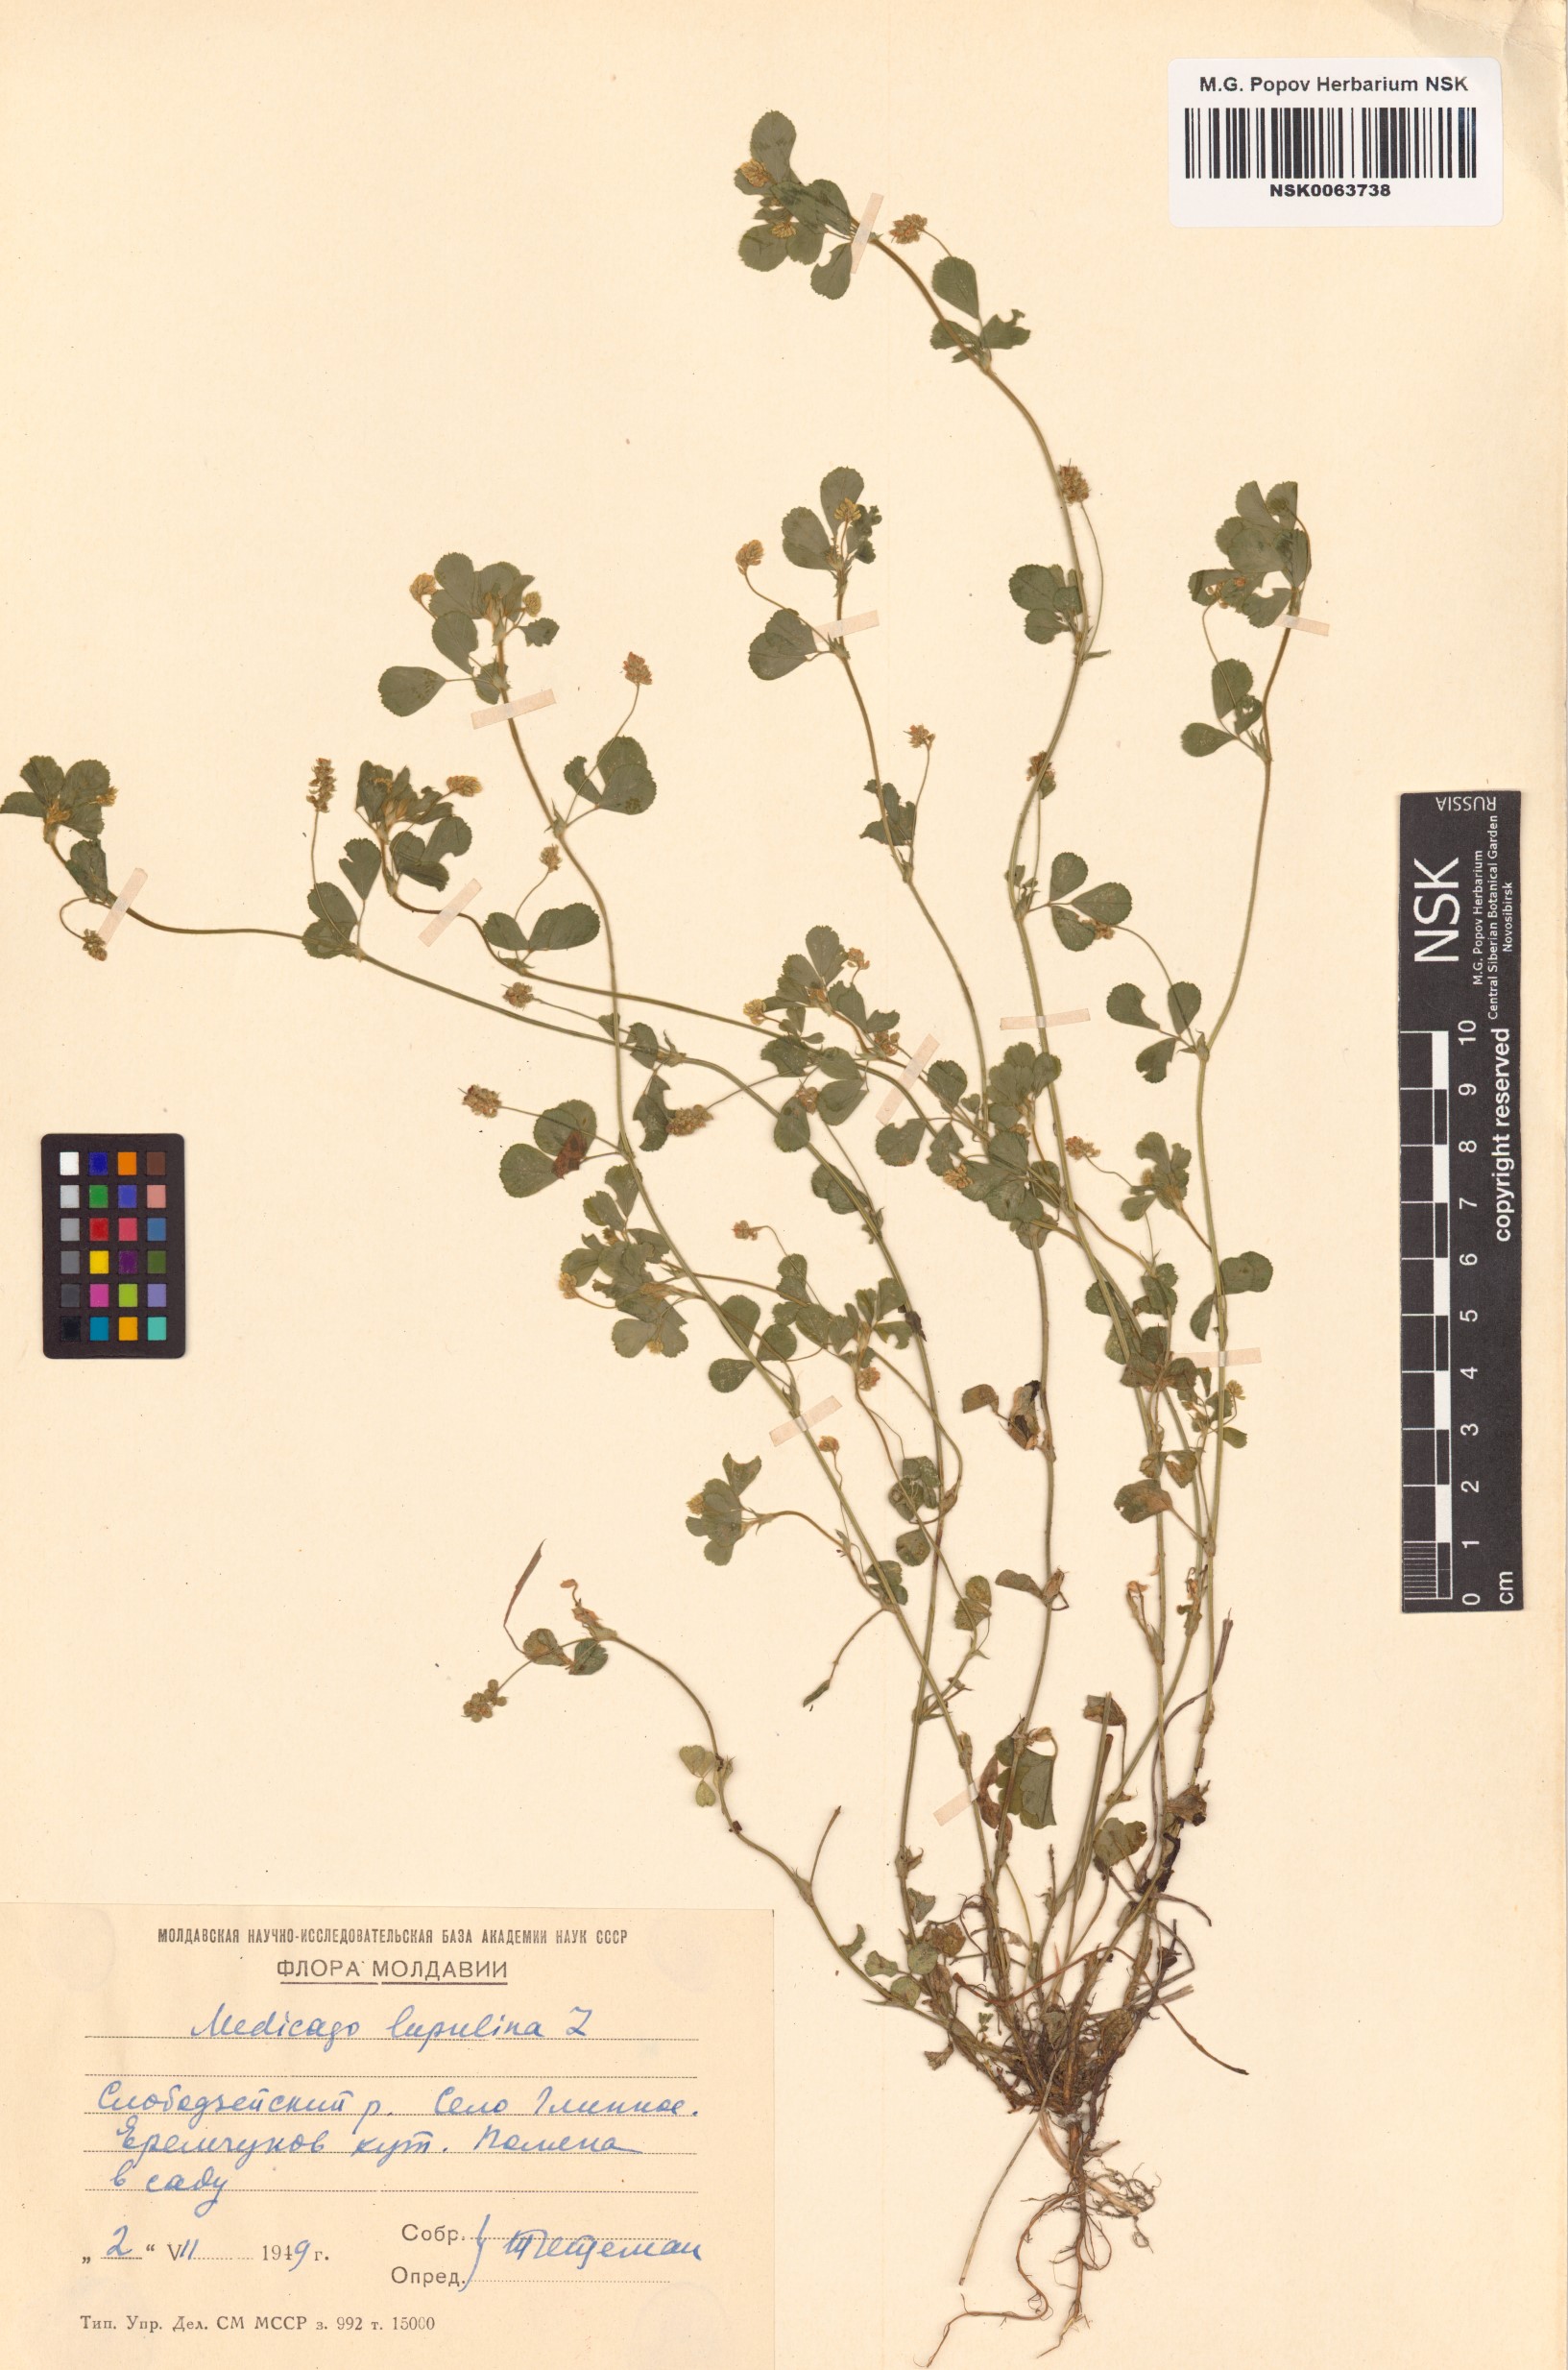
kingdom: Plantae
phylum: Tracheophyta
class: Magnoliopsida
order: Fabales
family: Fabaceae
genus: Medicago
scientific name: Medicago lupulina
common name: Black medick
